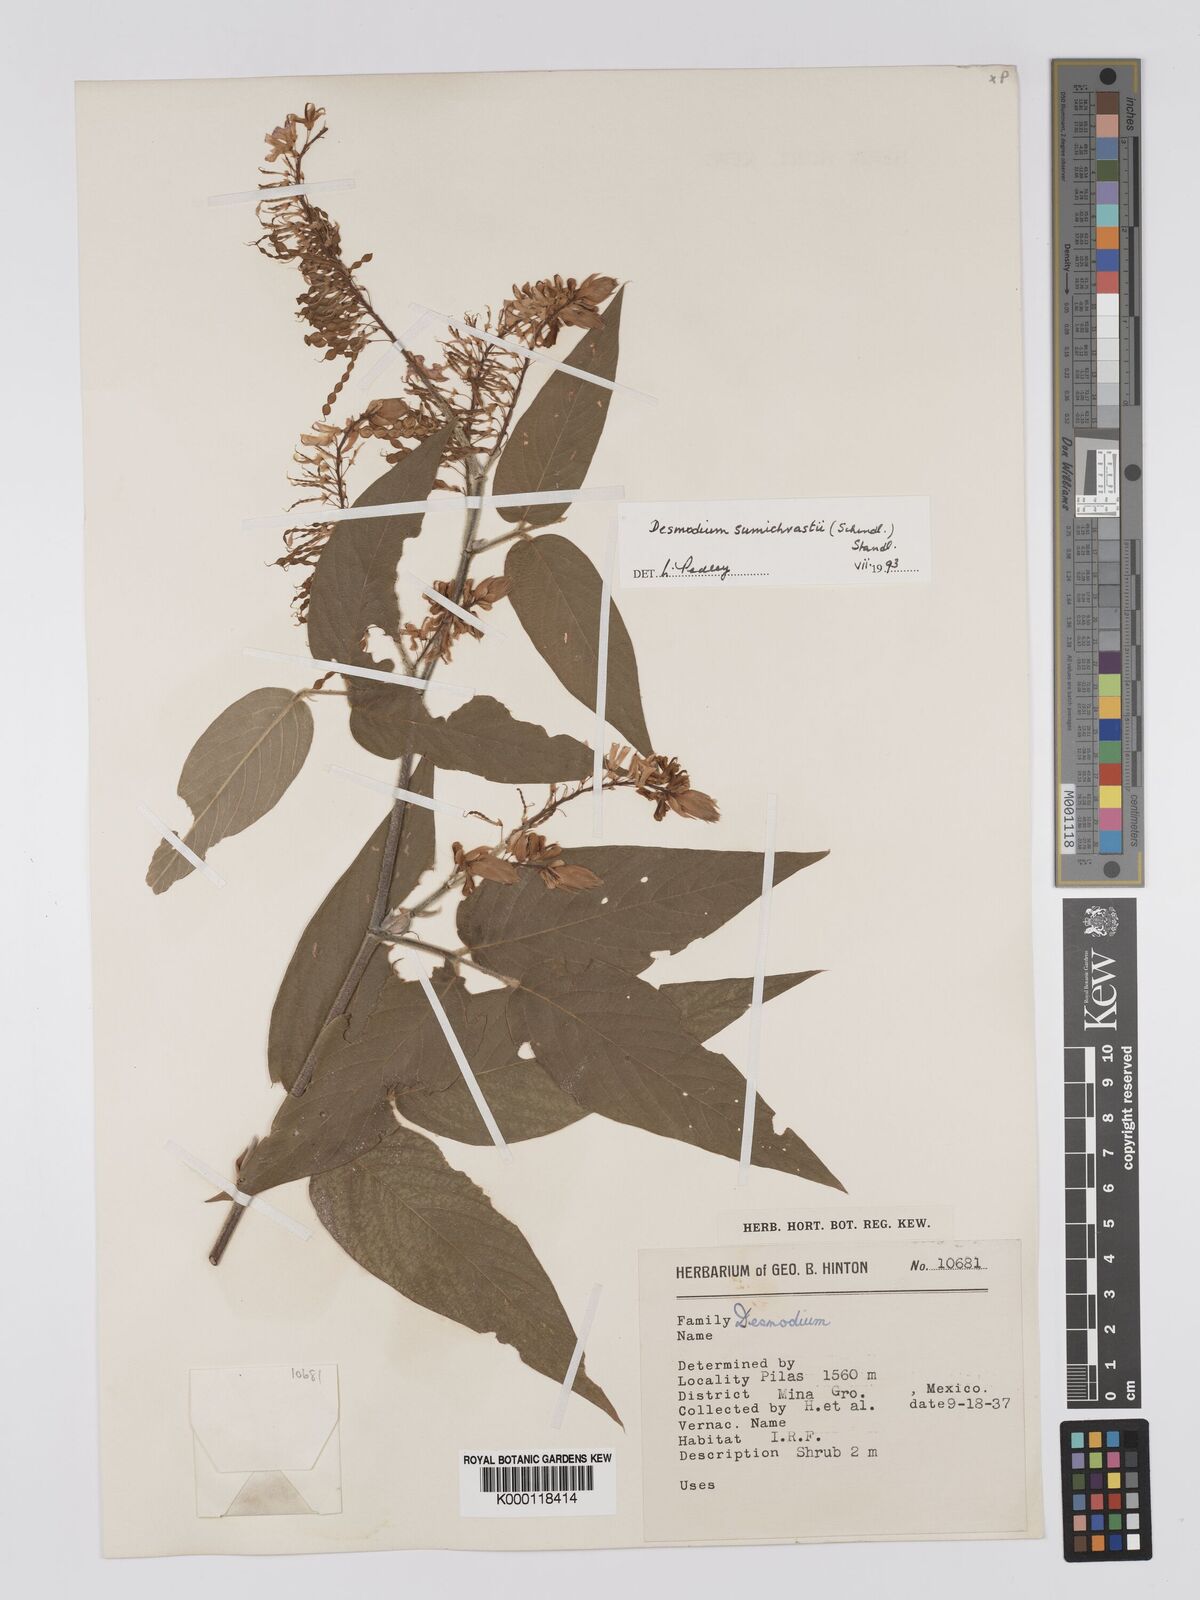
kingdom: Plantae
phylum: Tracheophyta
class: Magnoliopsida
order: Fabales
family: Fabaceae
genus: Desmodium
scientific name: Desmodium sumichrastii
